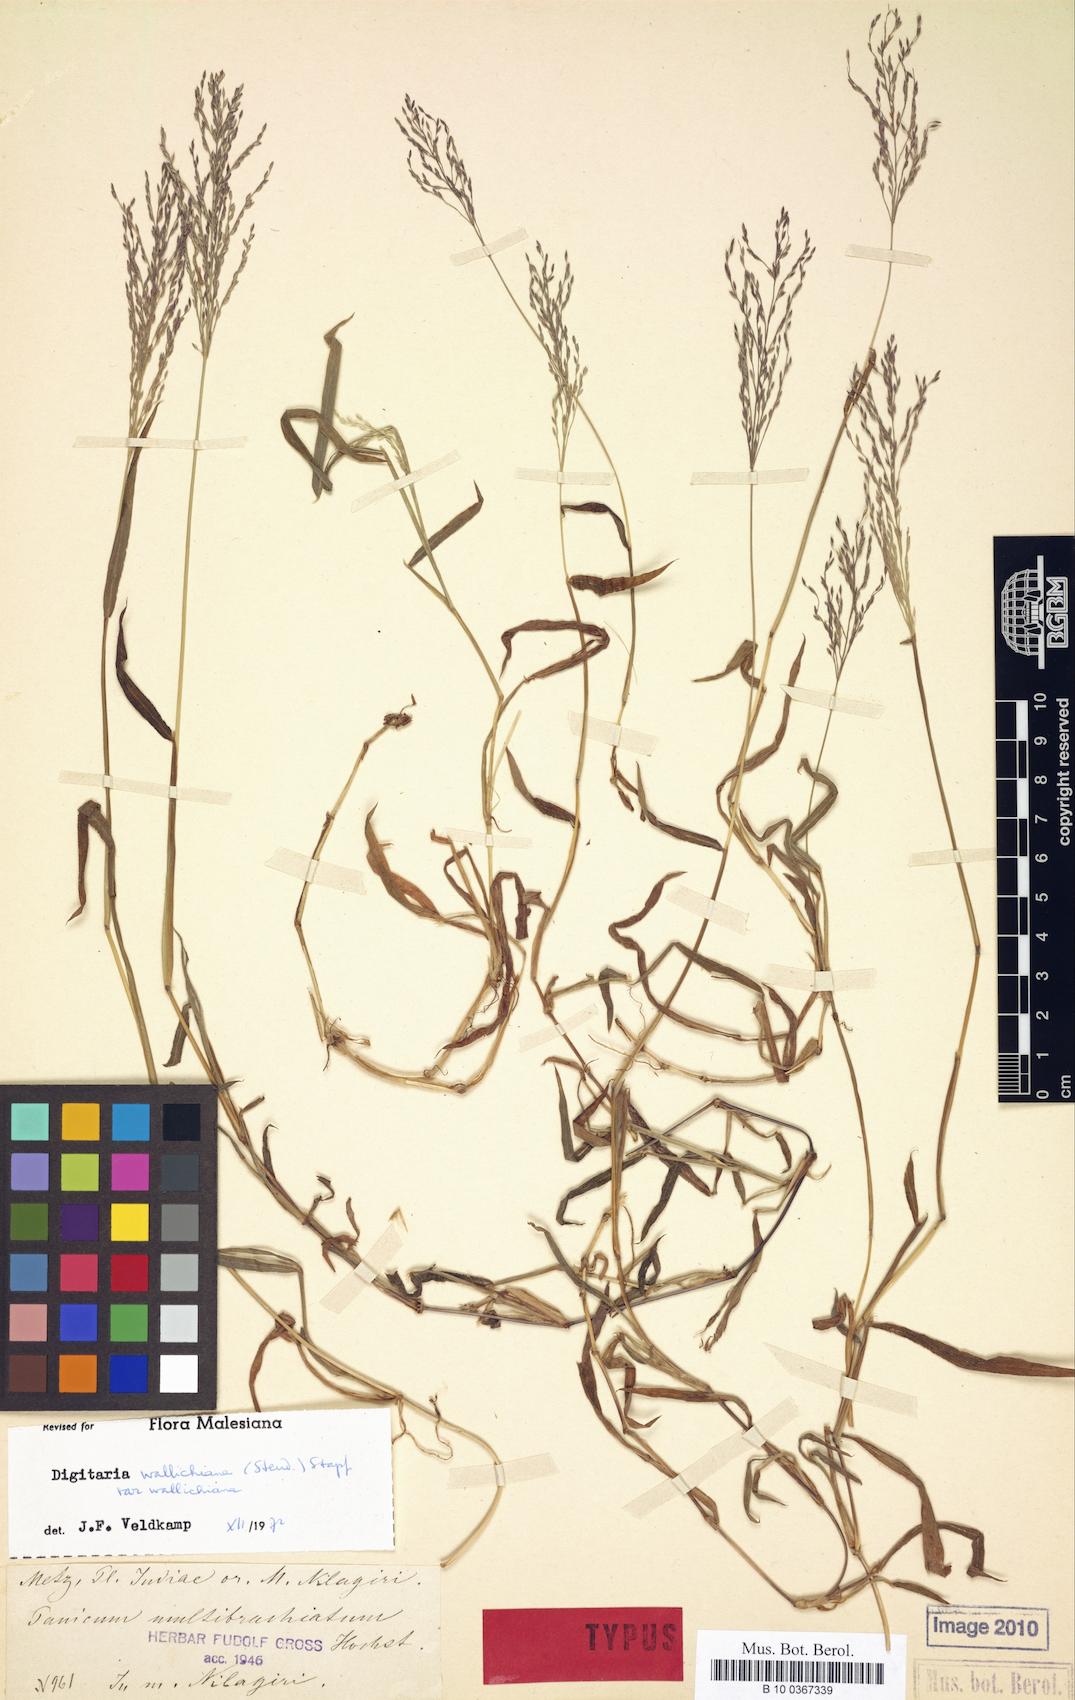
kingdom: Plantae
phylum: Tracheophyta
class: Liliopsida
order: Poales
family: Poaceae
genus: Digitaria
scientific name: Digitaria wallichiana
